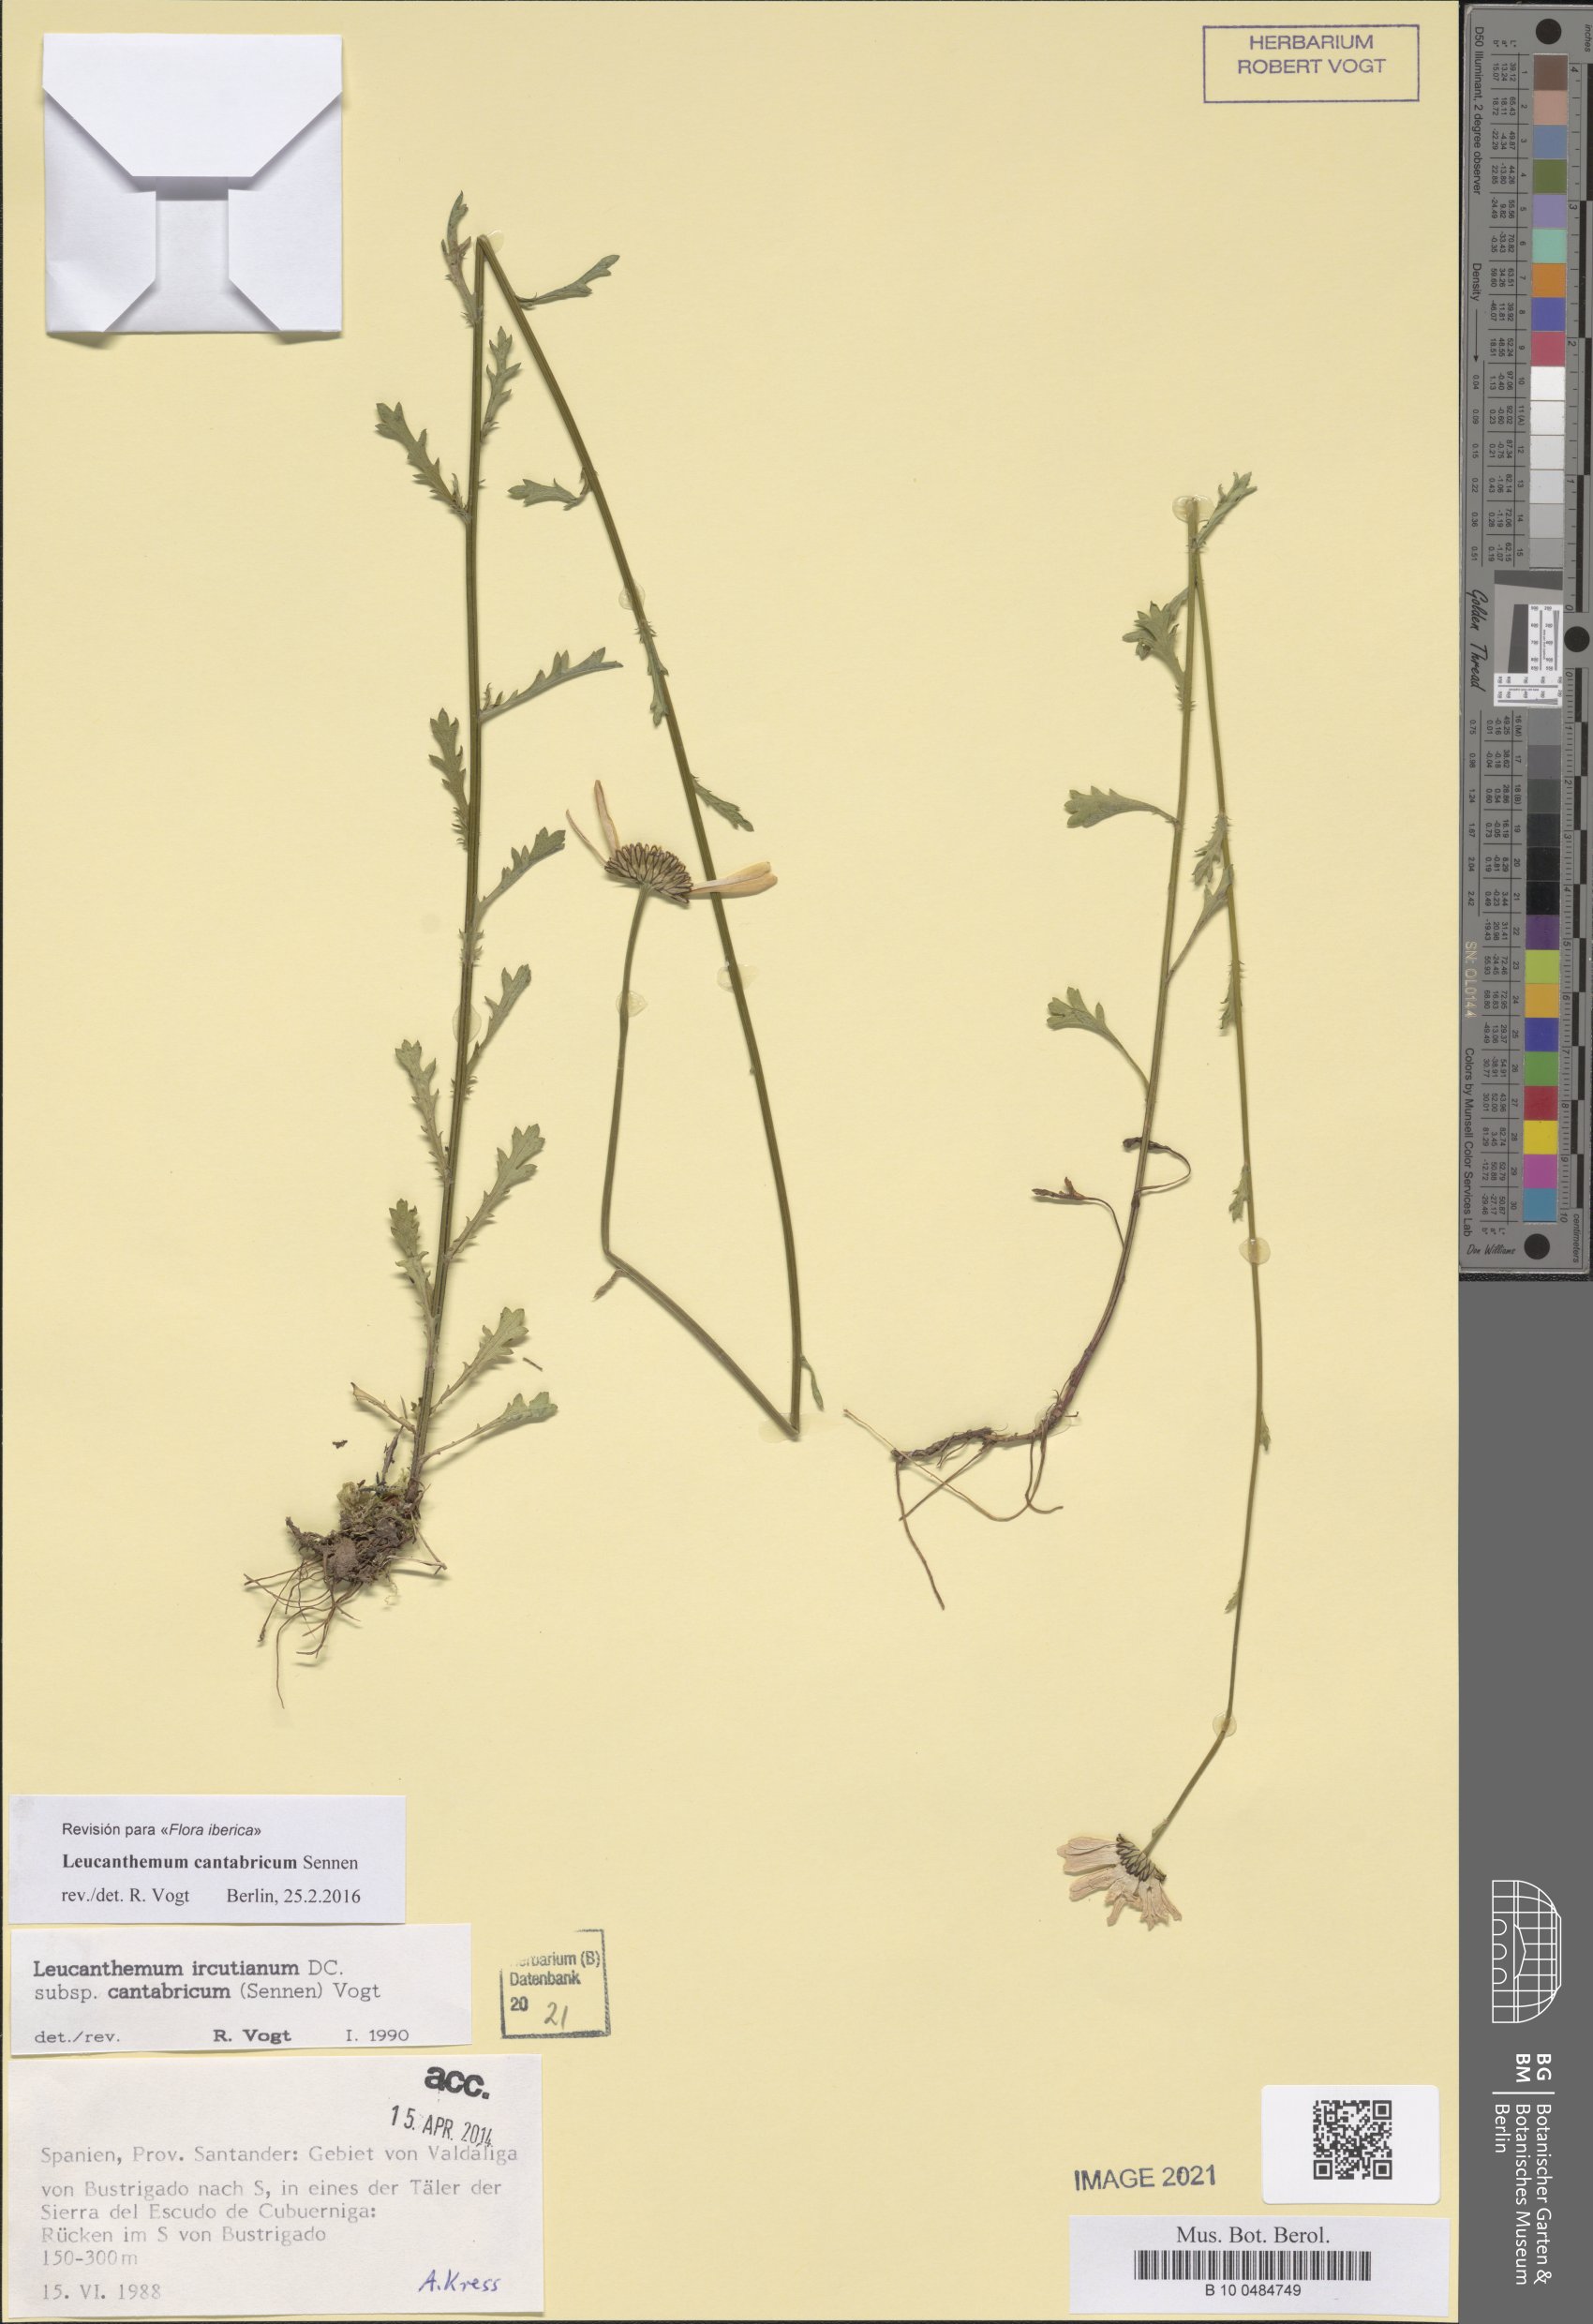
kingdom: Plantae
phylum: Tracheophyta
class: Magnoliopsida
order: Asterales
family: Asteraceae
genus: Leucanthemum
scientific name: Leucanthemum cantabricum
